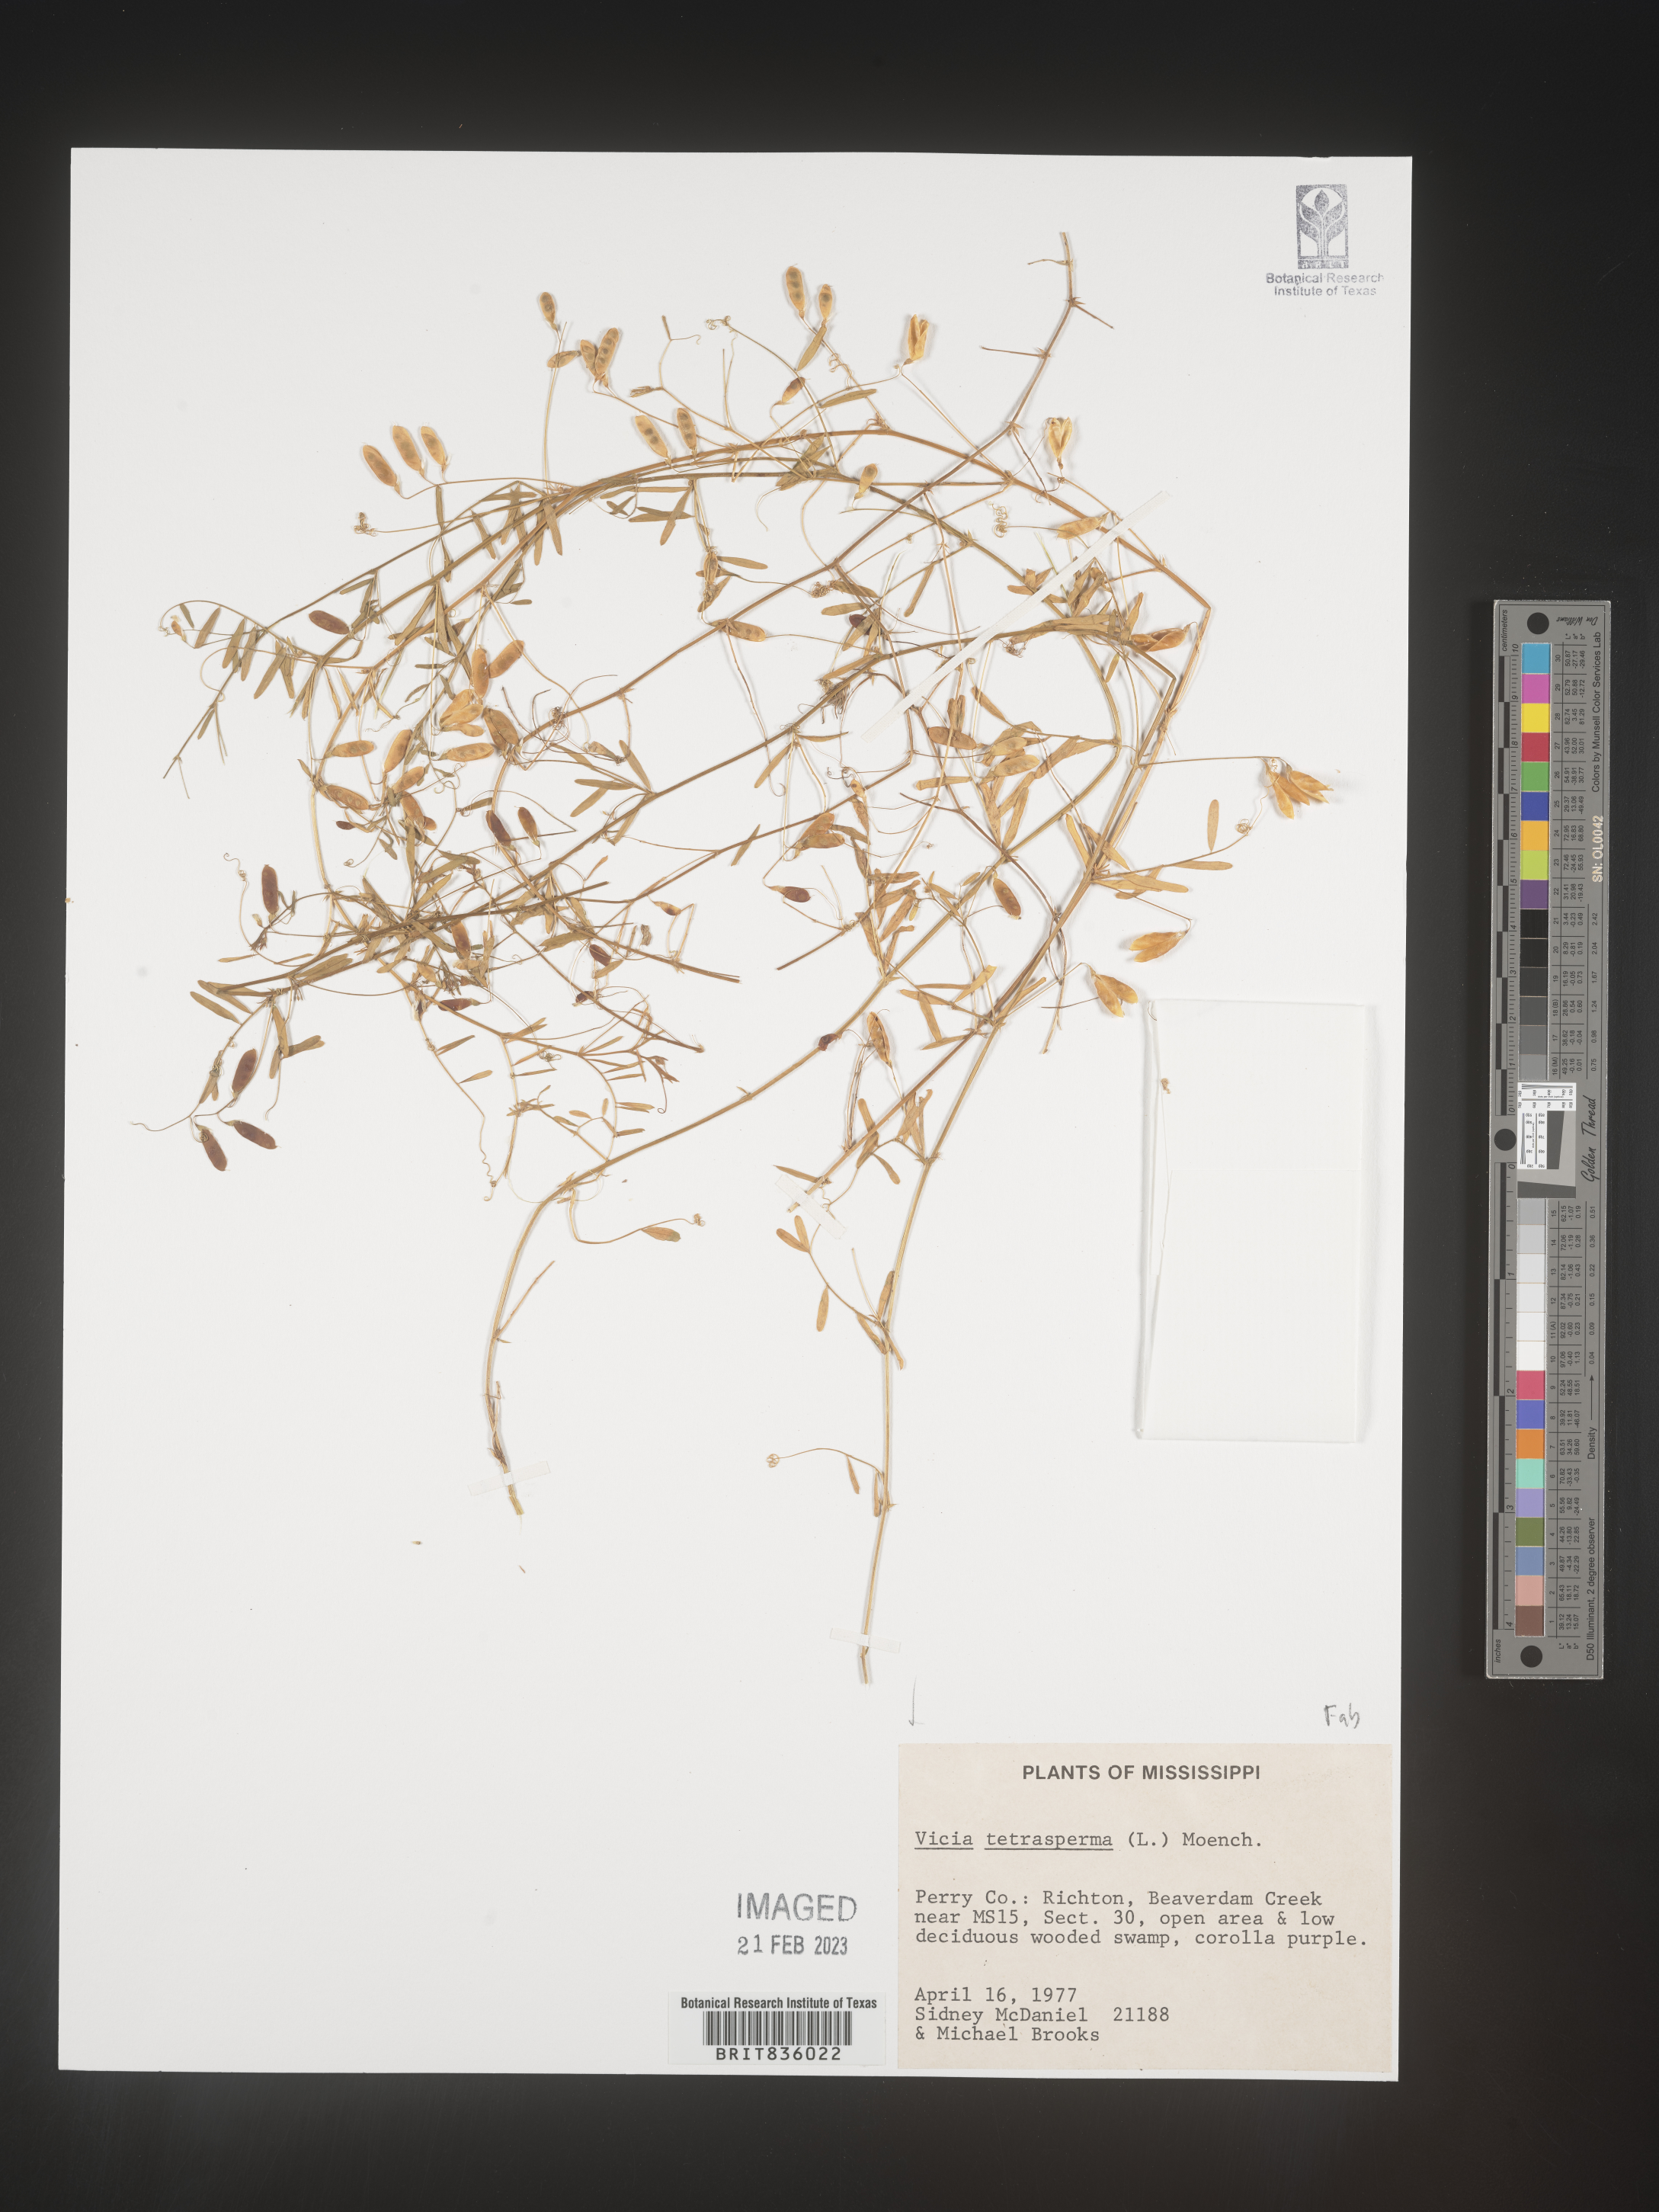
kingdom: Plantae
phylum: Tracheophyta
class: Magnoliopsida
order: Fabales
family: Fabaceae
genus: Vicia
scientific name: Vicia tetrasperma
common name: Smooth tare
